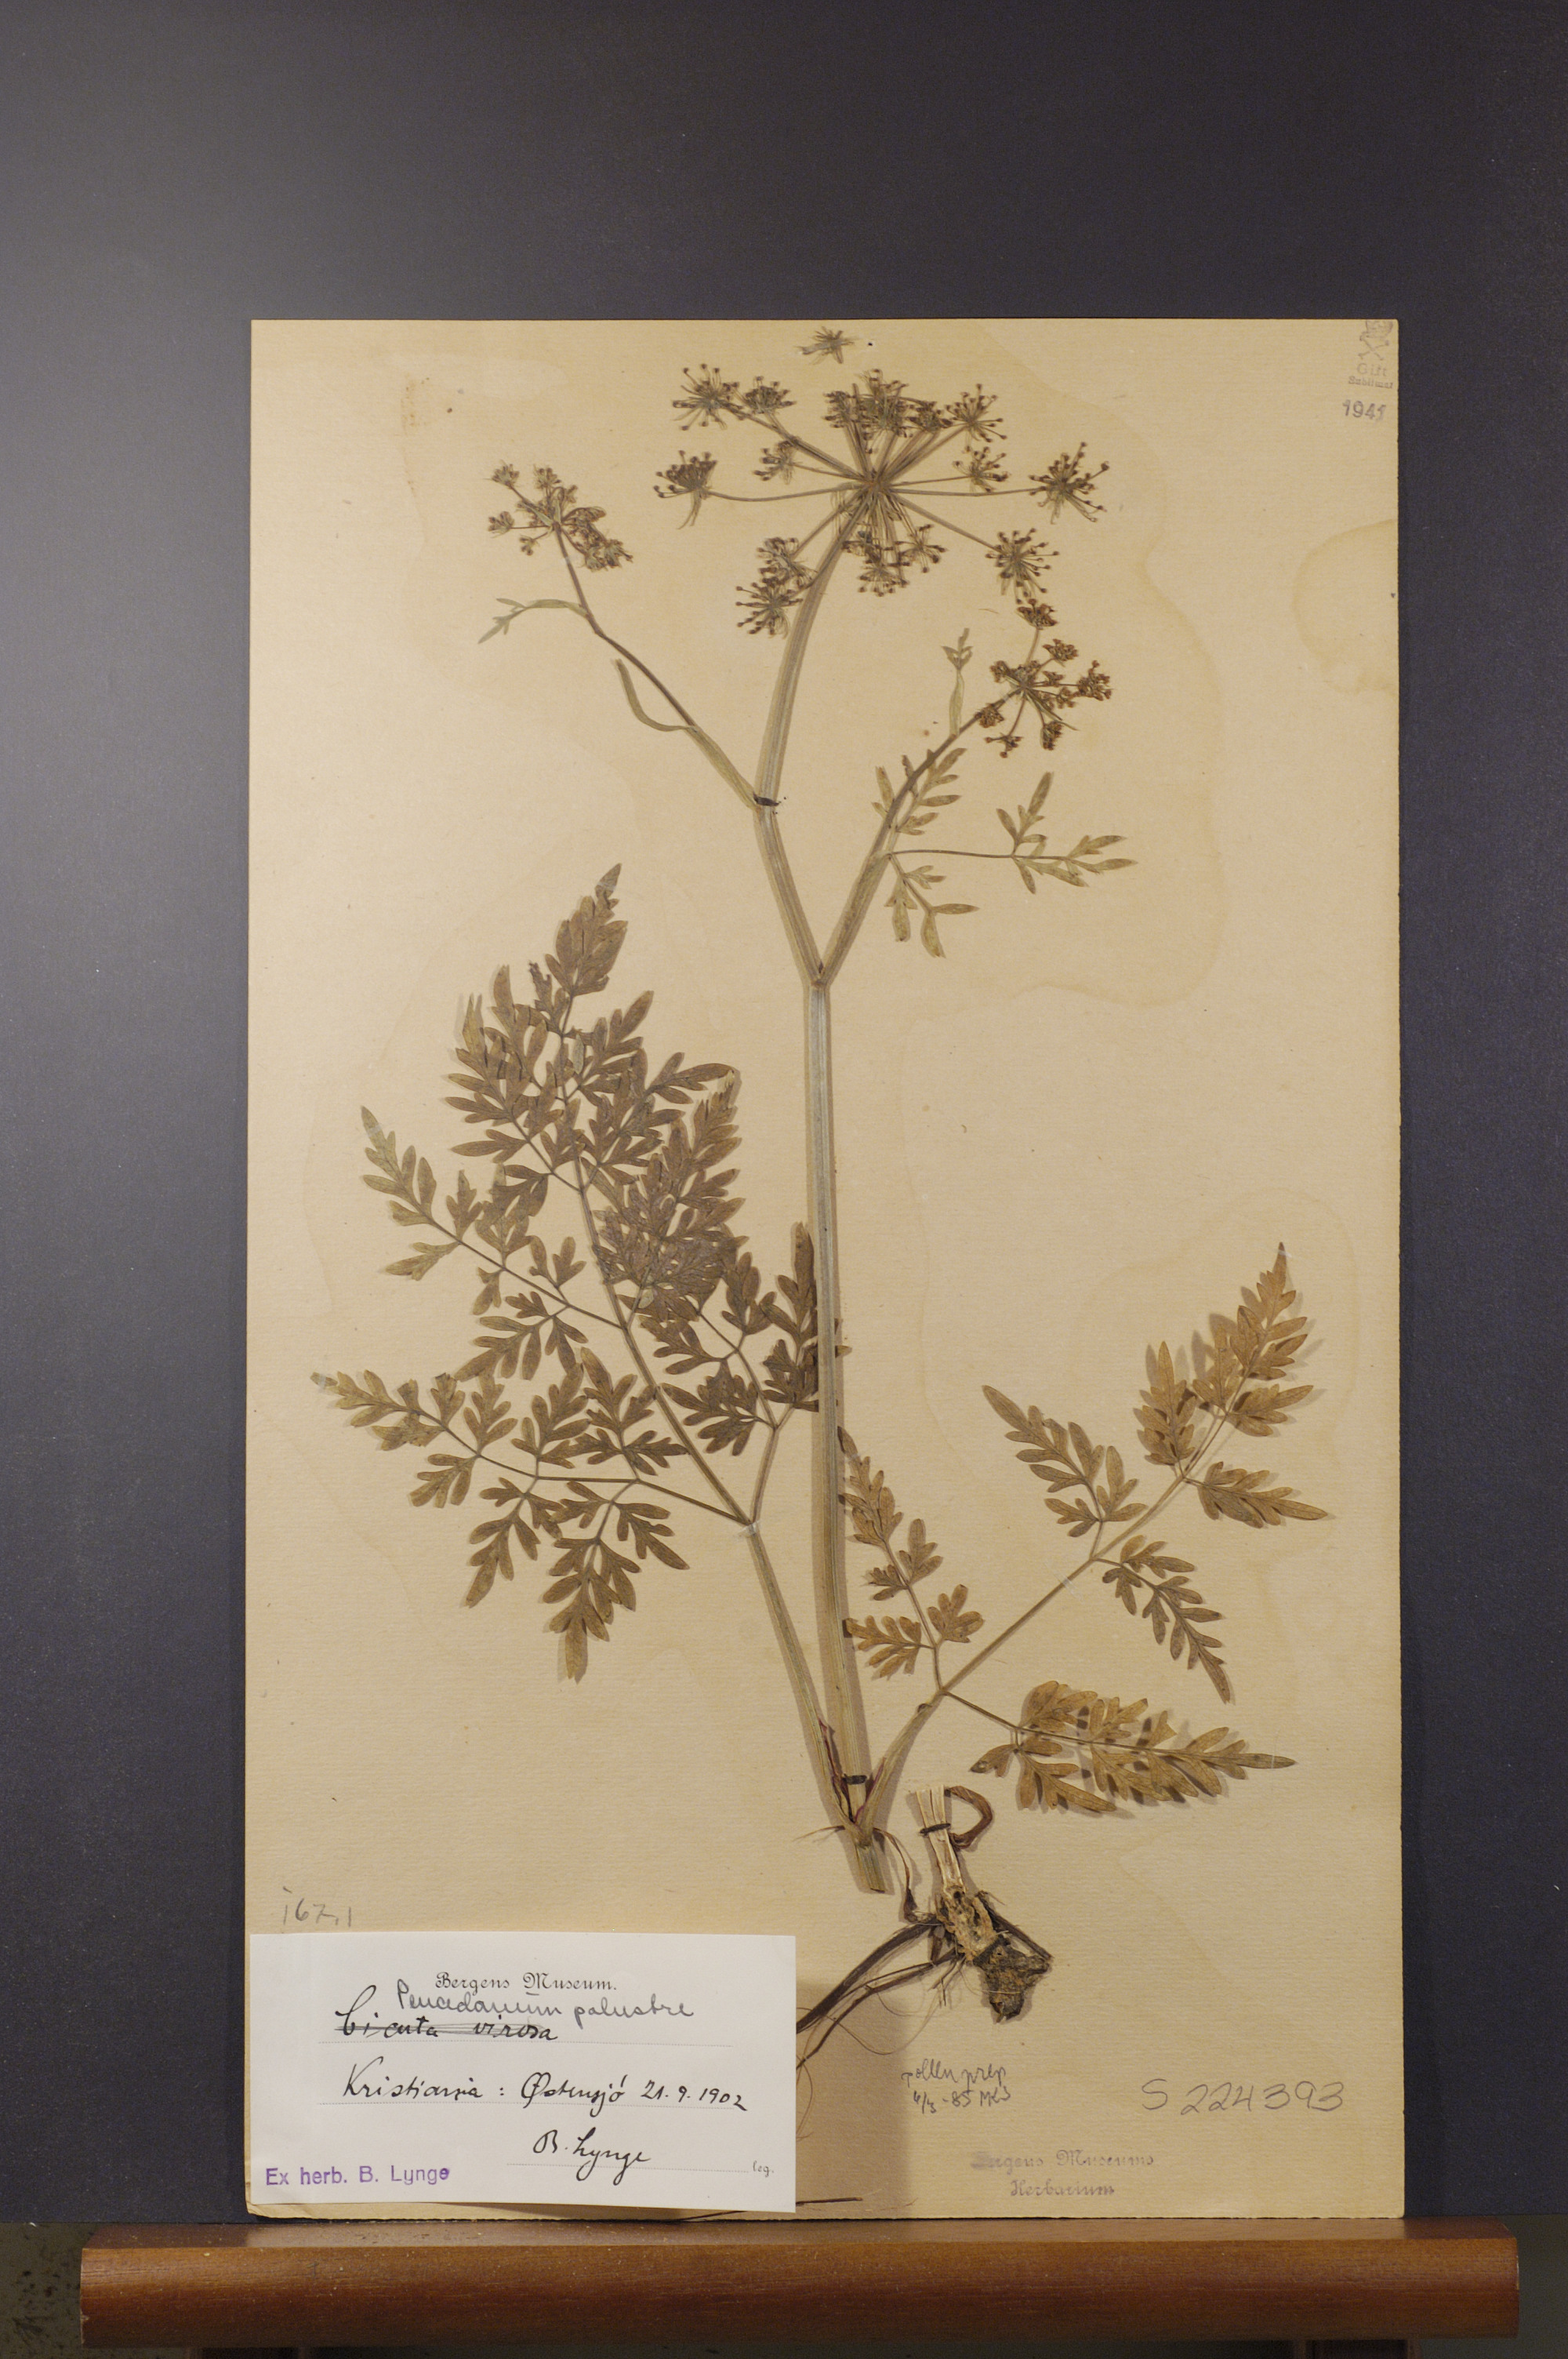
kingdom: Plantae
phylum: Tracheophyta
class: Magnoliopsida
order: Apiales
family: Apiaceae
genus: Thysselinum
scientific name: Thysselinum palustre
